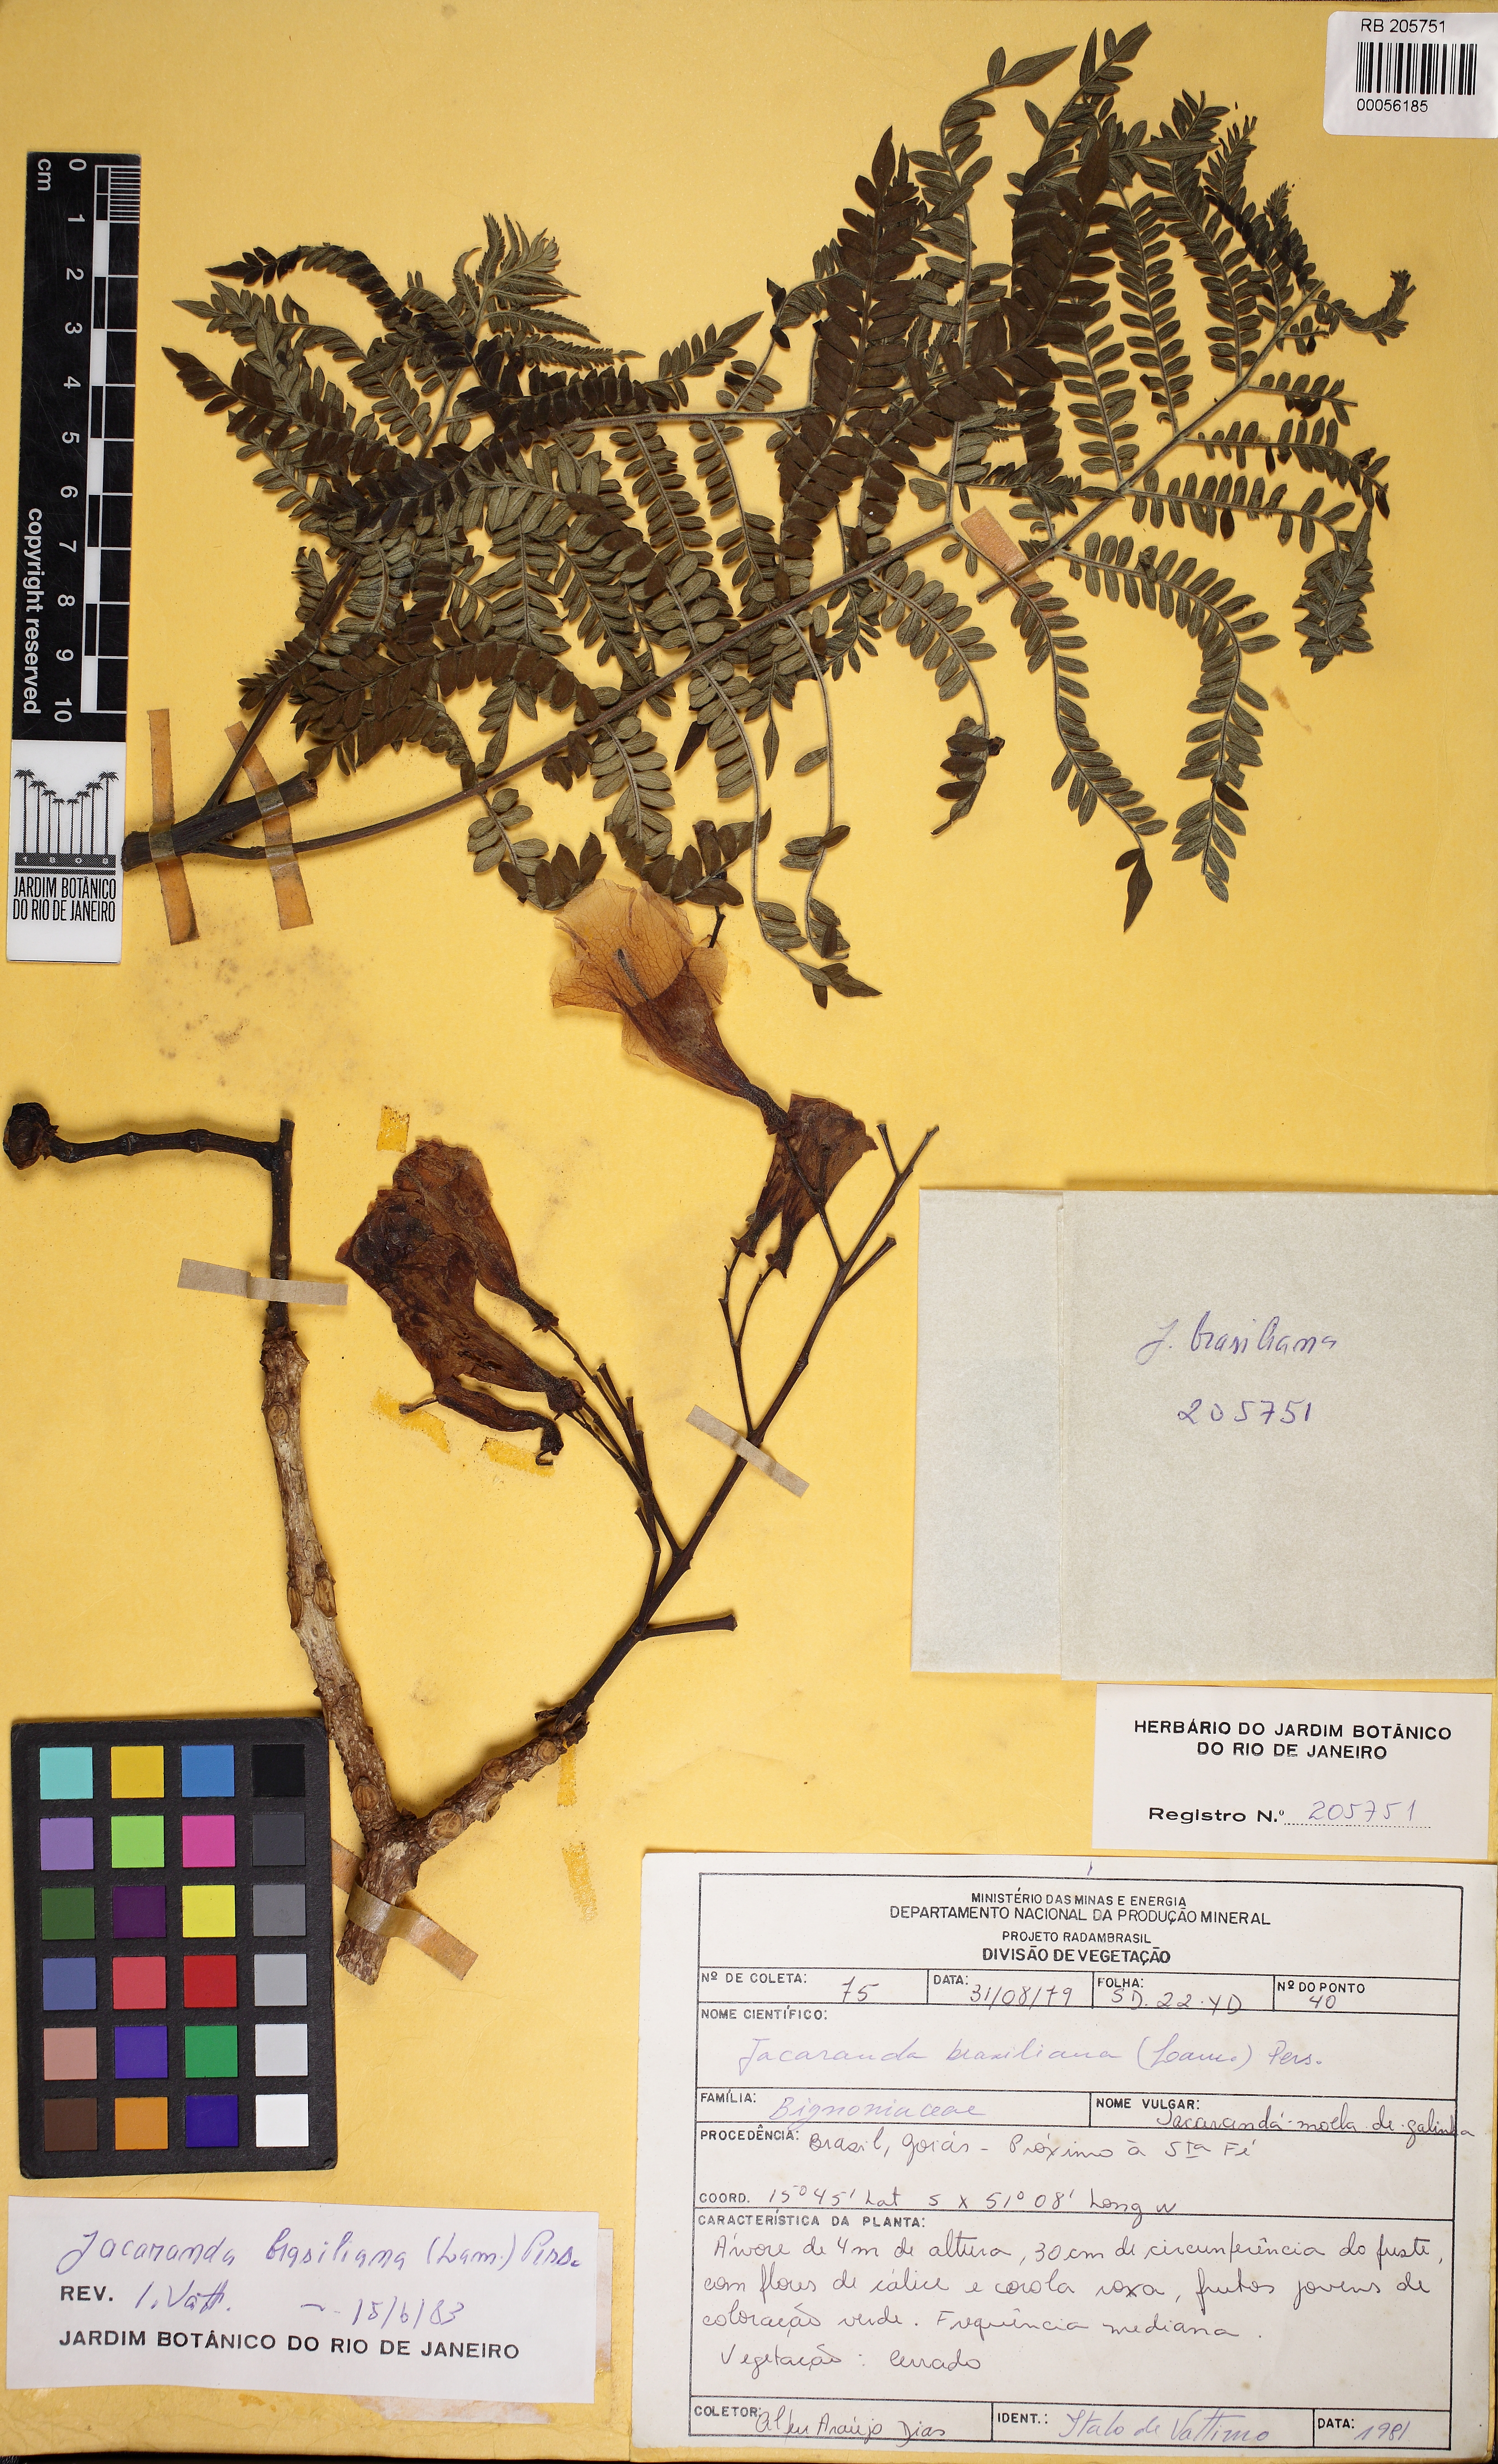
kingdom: Plantae
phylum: Tracheophyta
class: Magnoliopsida
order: Lamiales
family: Bignoniaceae
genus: Jacaranda
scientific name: Jacaranda brasiliana
